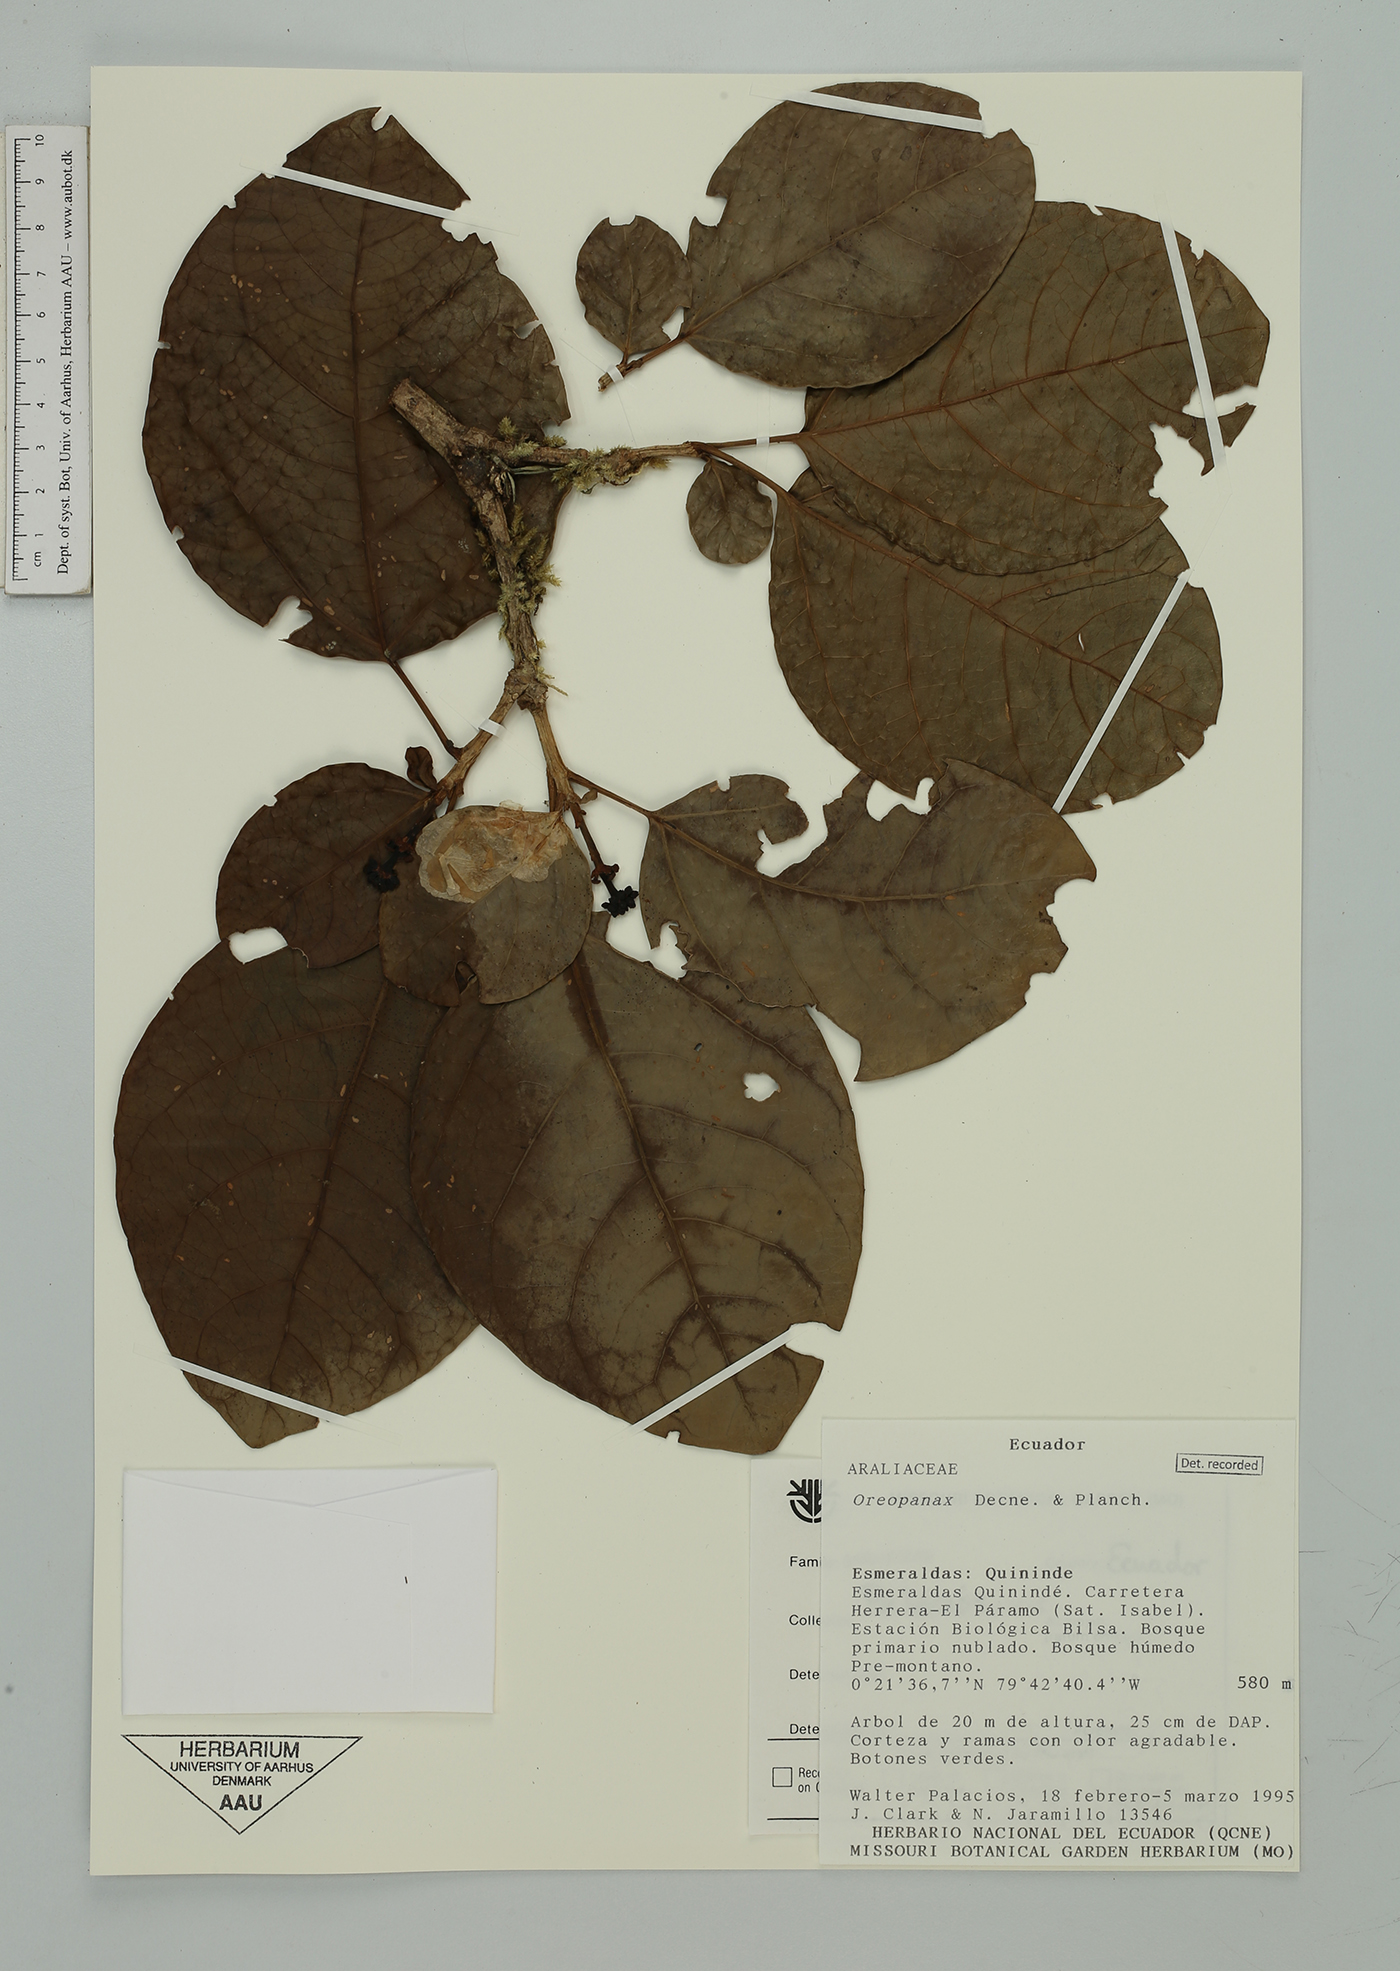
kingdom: Plantae
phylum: Tracheophyta
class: Magnoliopsida
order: Apiales
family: Araliaceae
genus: Oreopanax
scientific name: Oreopanax
